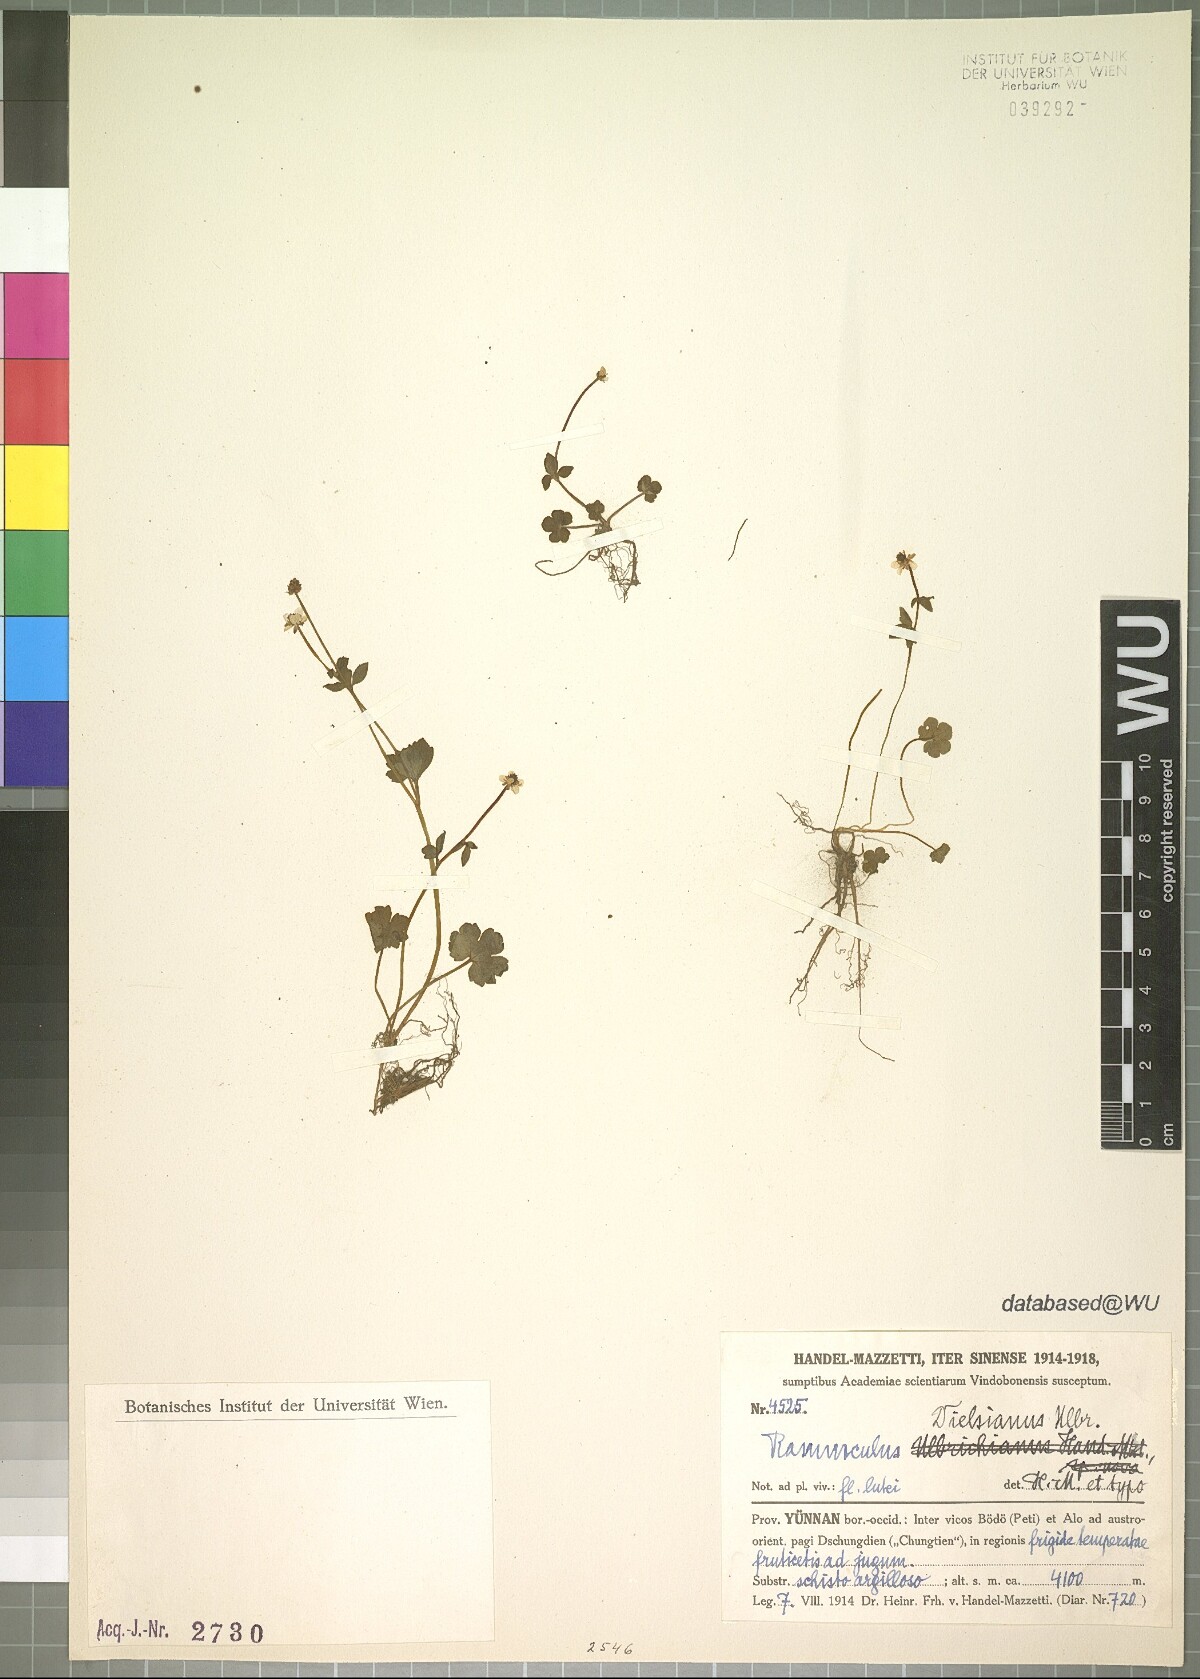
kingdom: Plantae
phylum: Tracheophyta
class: Magnoliopsida
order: Ranunculales
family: Ranunculaceae
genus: Ranunculus
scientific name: Ranunculus dielsianus
